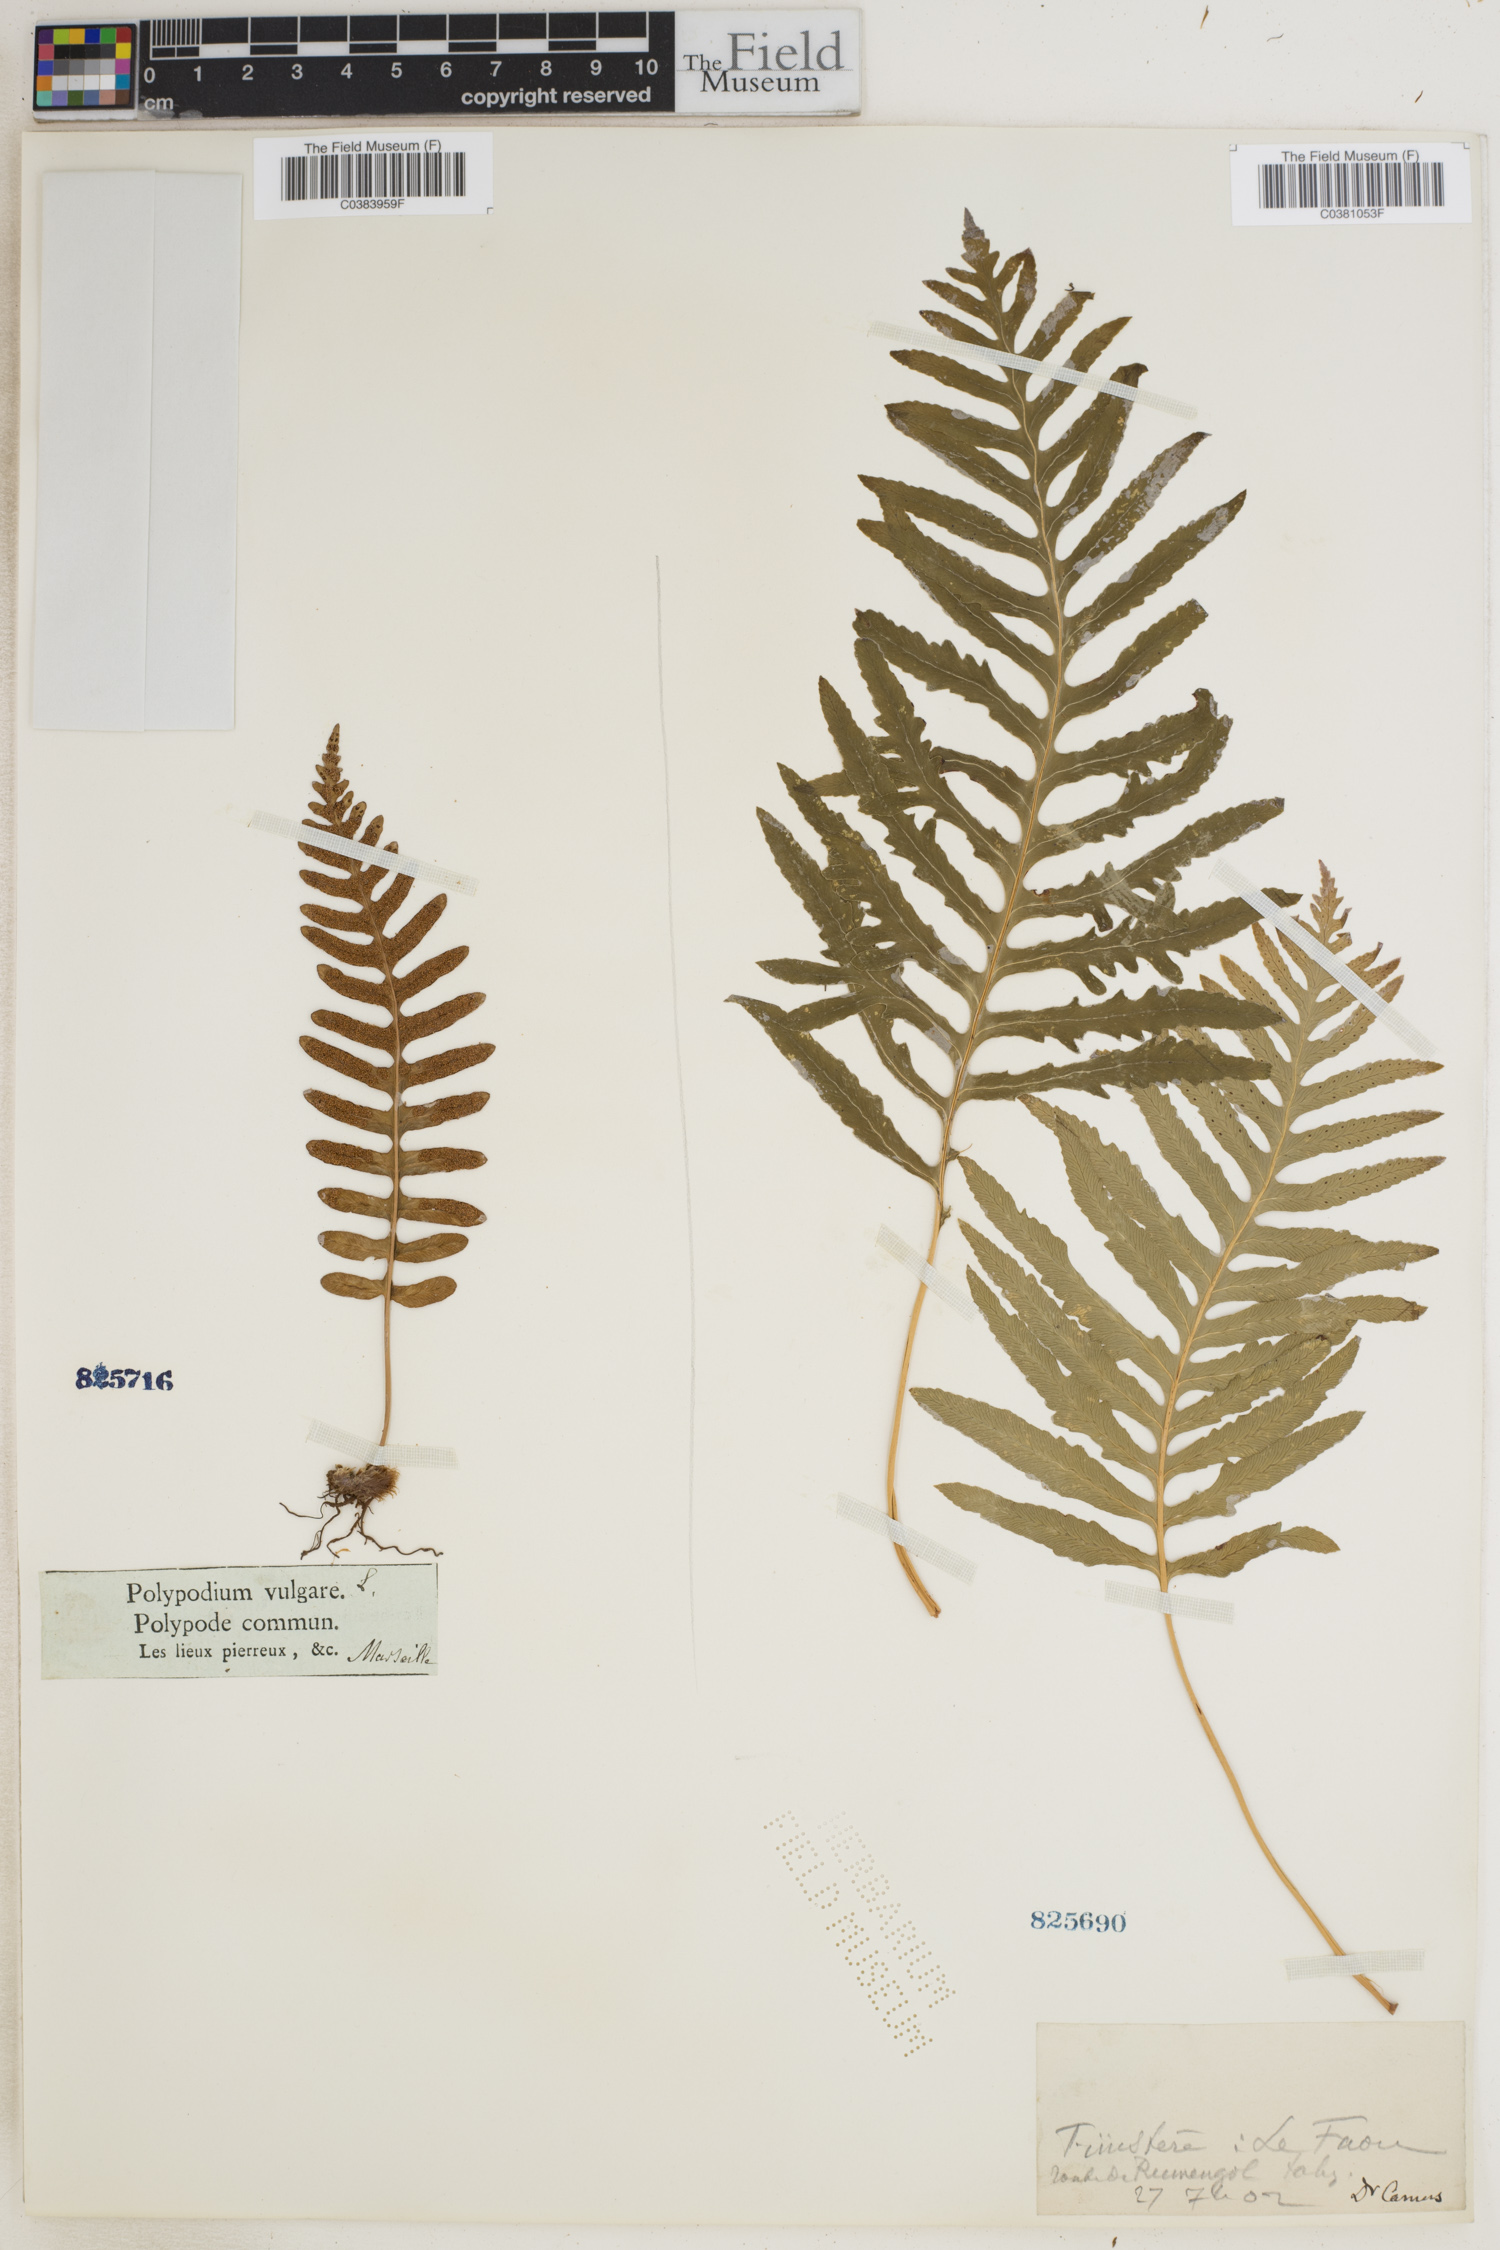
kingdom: Plantae
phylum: Tracheophyta
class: Polypodiopsida
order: Polypodiales
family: Polypodiaceae
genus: Polypodium
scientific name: Polypodium vulgare
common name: Common polypody
